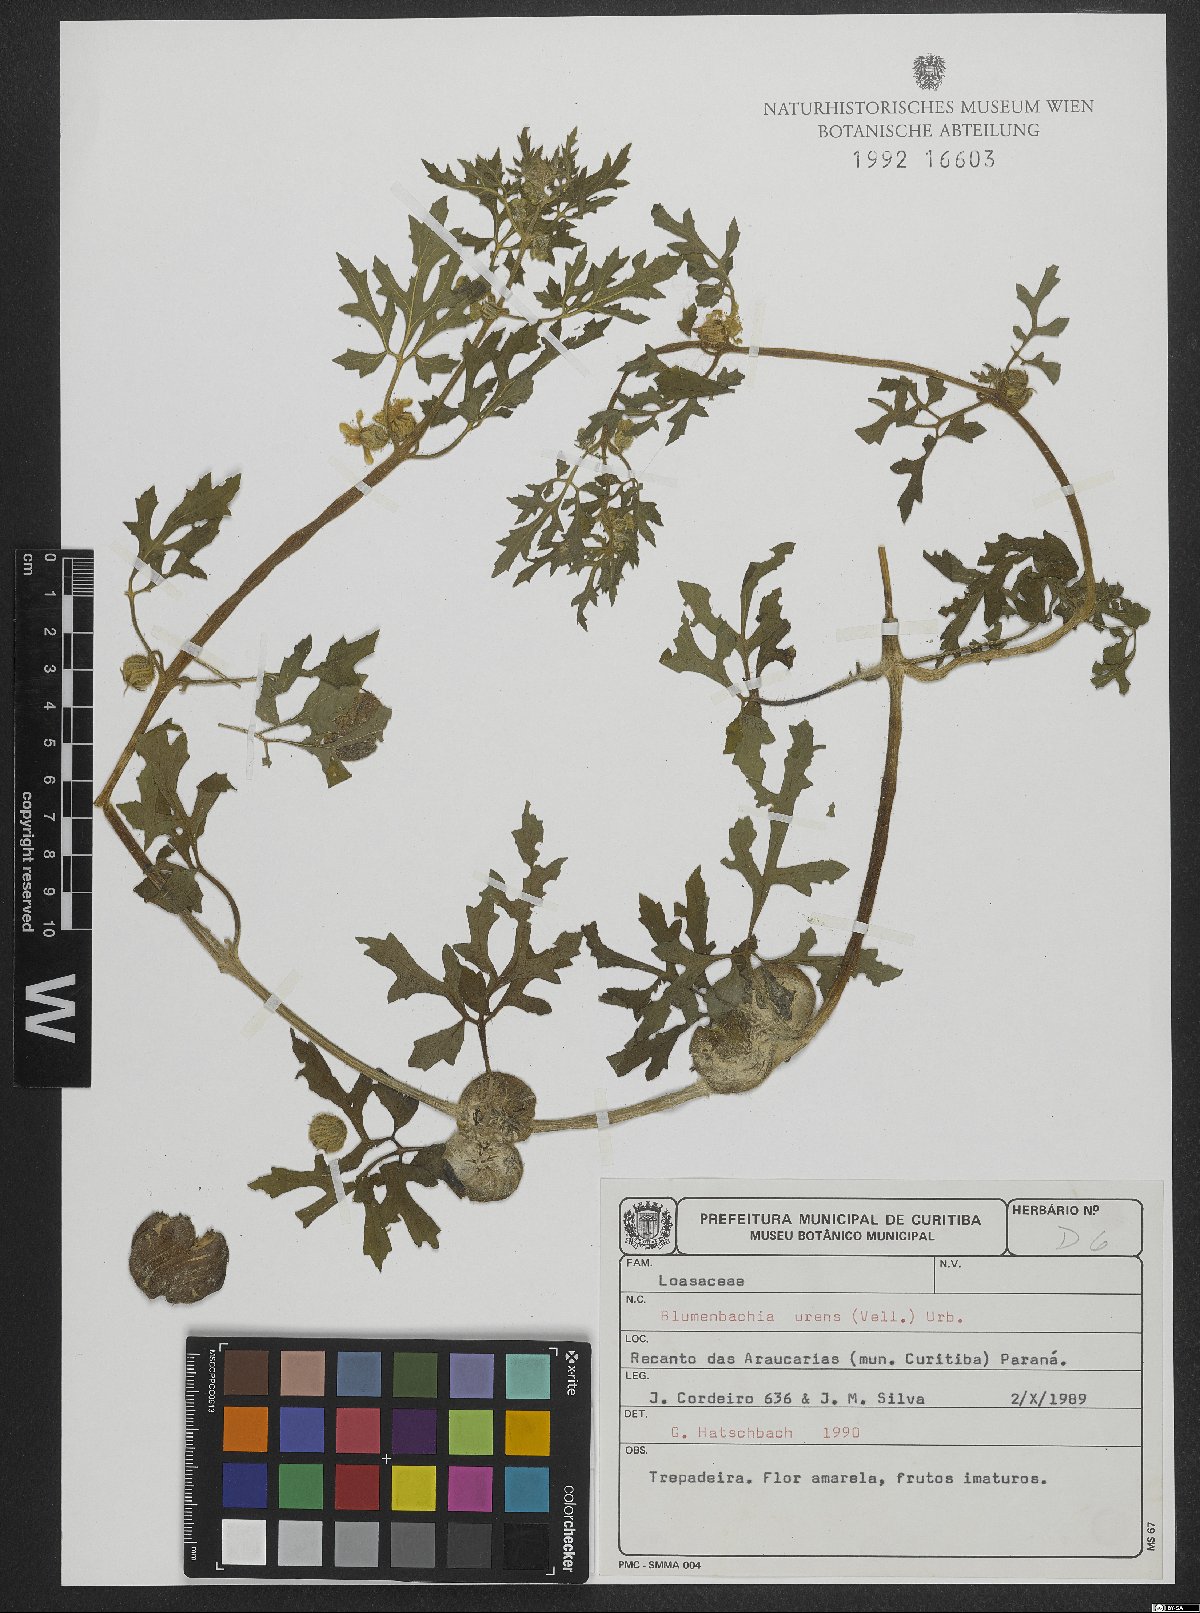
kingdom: Plantae
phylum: Tracheophyta
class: Magnoliopsida
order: Cornales
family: Loasaceae
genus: Blumenbachia
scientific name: Blumenbachia latifolia
